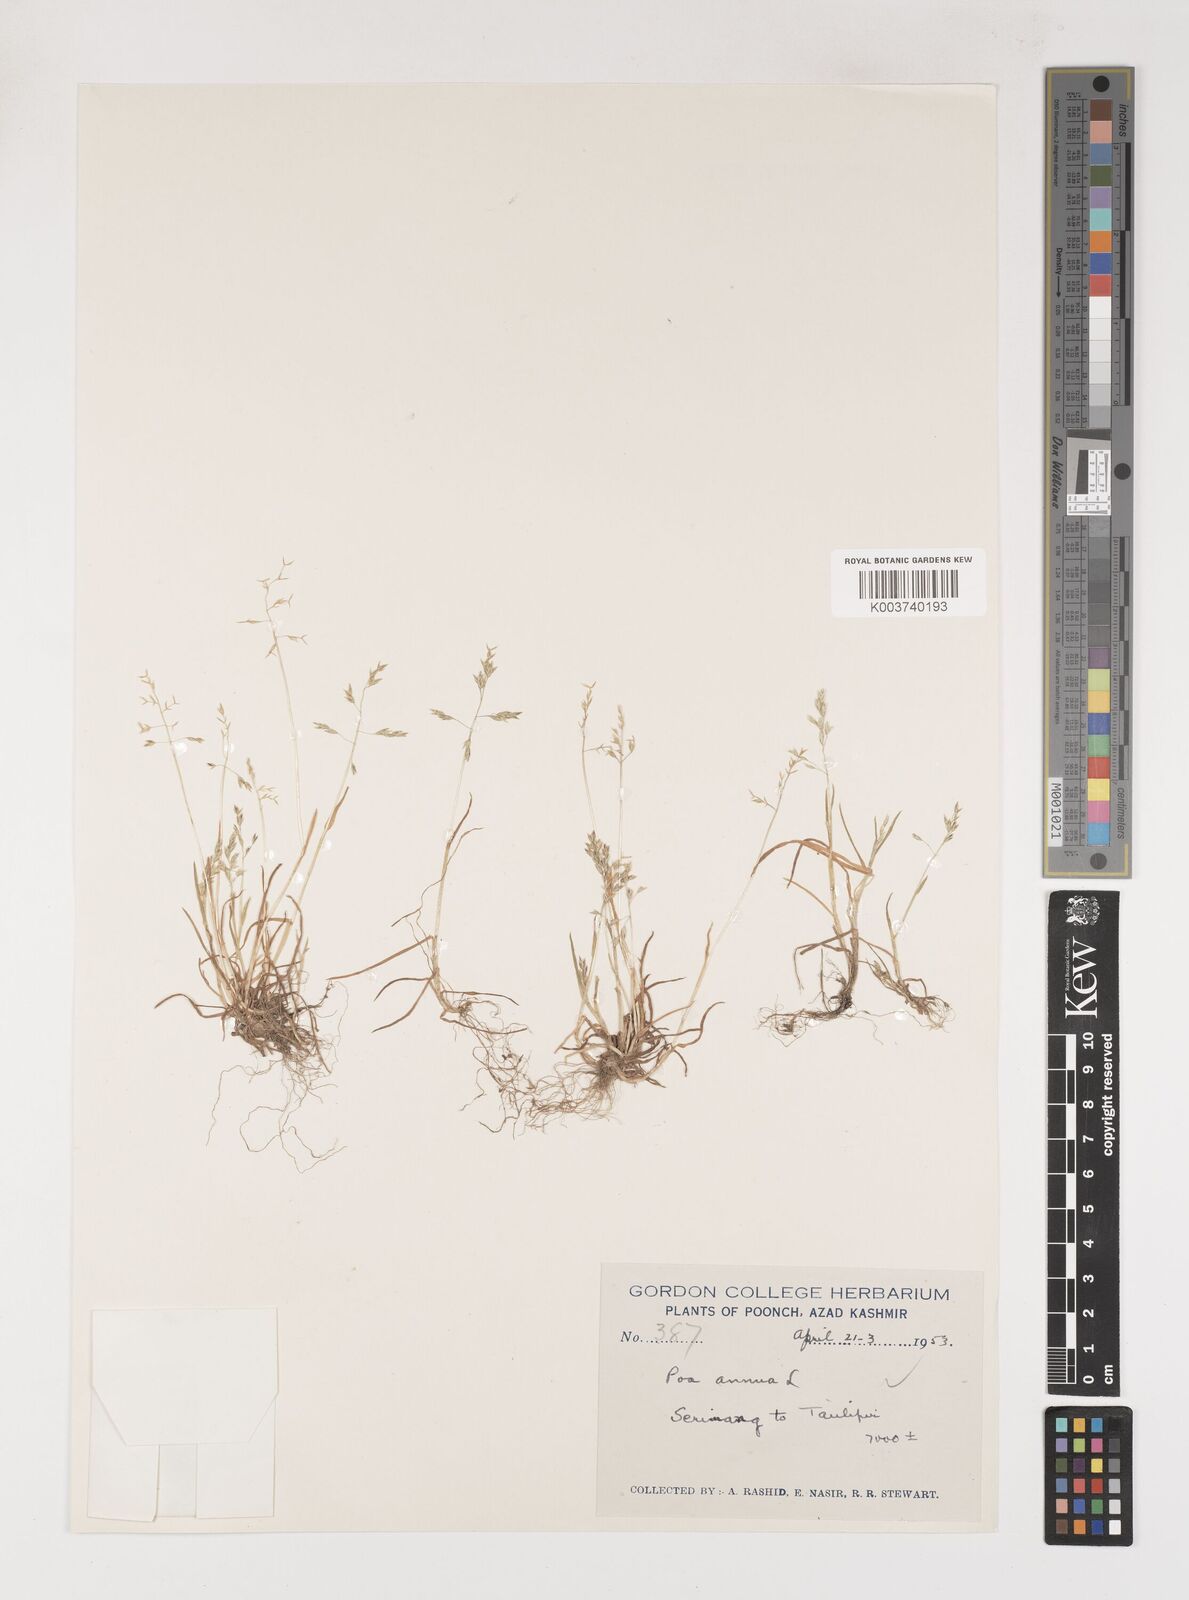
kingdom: Plantae
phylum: Tracheophyta
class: Liliopsida
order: Poales
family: Poaceae
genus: Poa
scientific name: Poa annua
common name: Annual bluegrass
